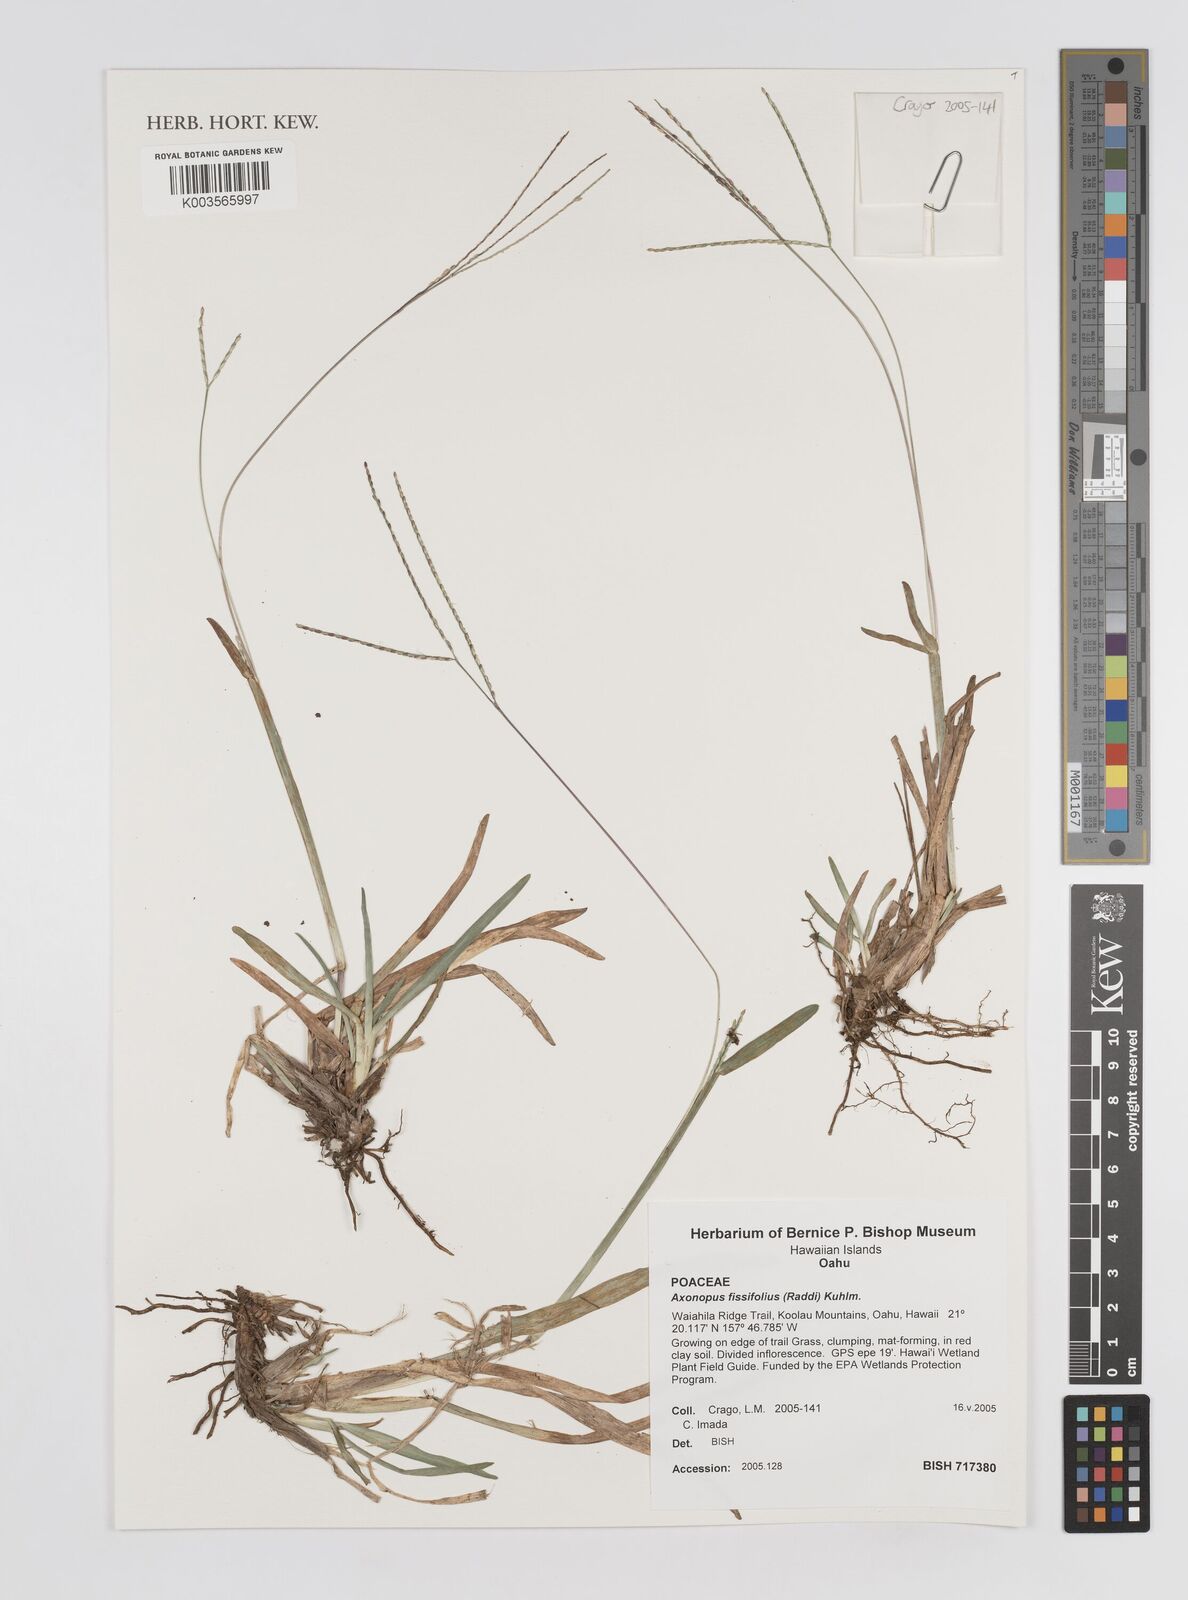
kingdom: Plantae
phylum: Tracheophyta
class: Liliopsida
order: Poales
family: Poaceae
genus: Axonopus
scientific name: Axonopus fissifolius
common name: Common carpetgrass
